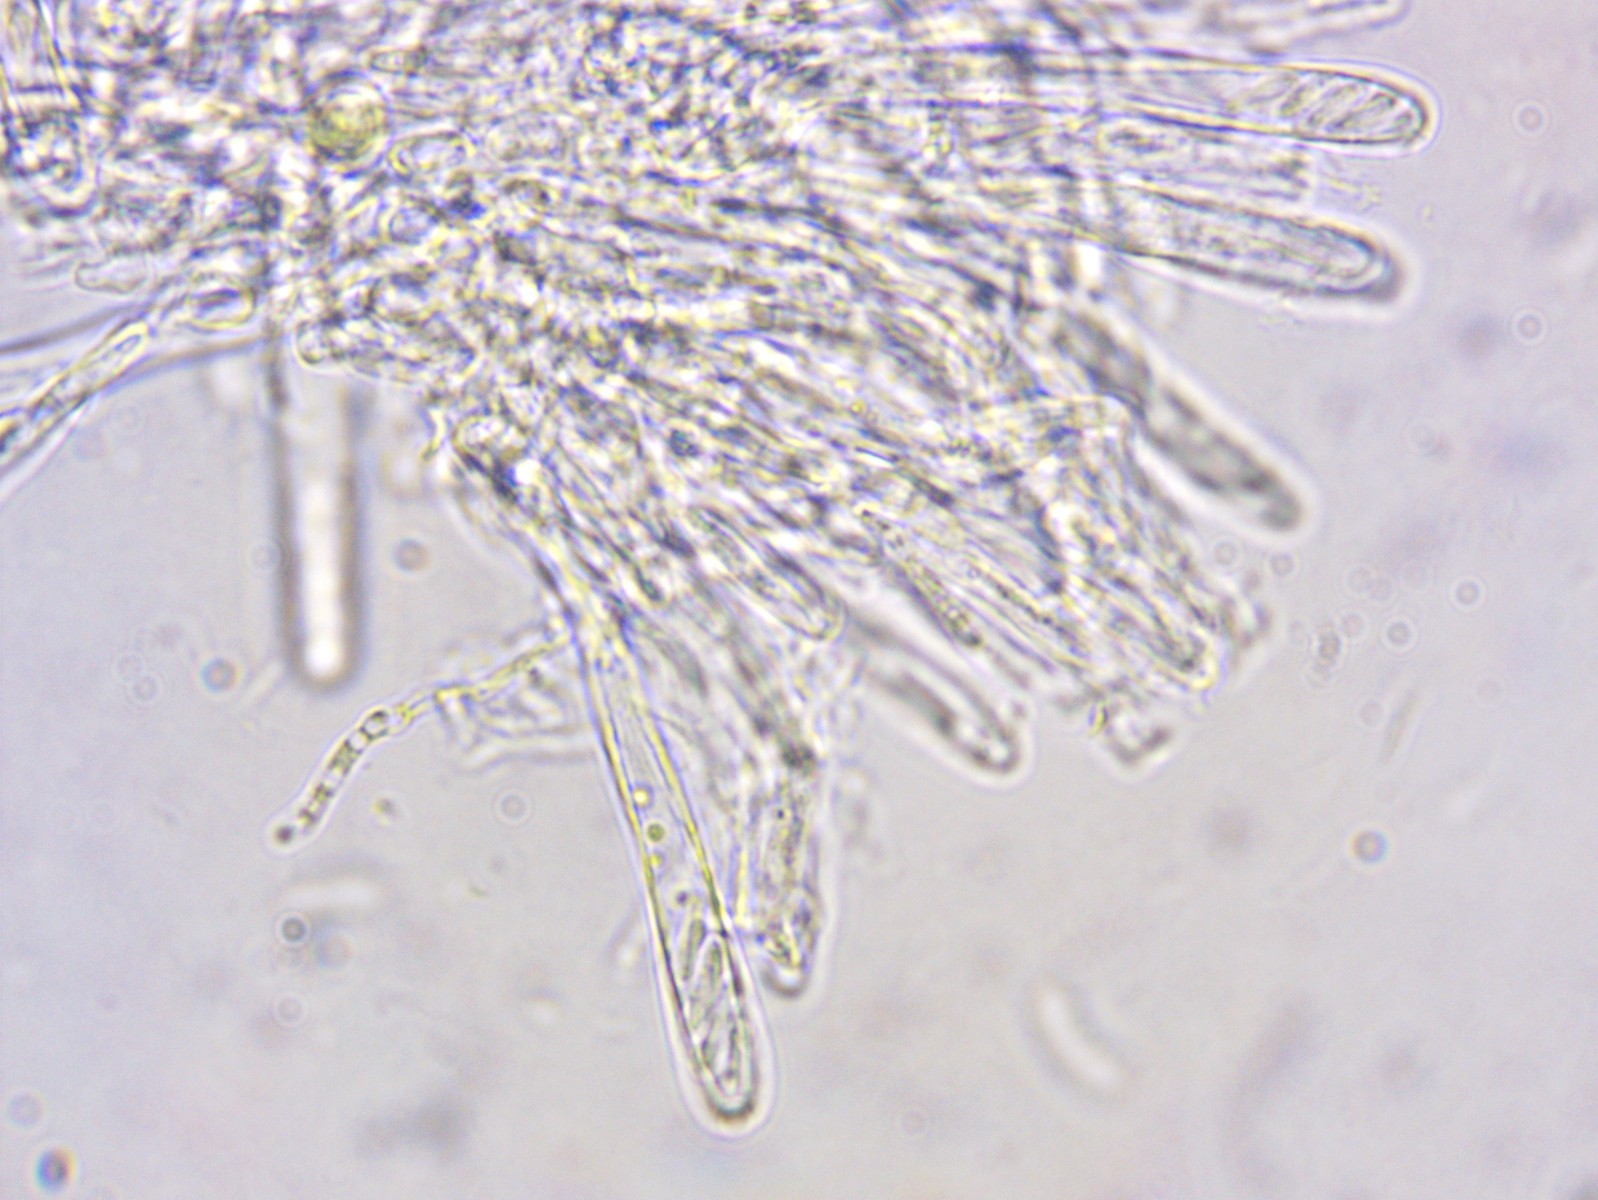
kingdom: Fungi
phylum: Ascomycota
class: Leotiomycetes
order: Helotiales
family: Pezizellaceae
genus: Calycina
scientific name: Calycina vulgaris
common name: pølsesporet gulskive
